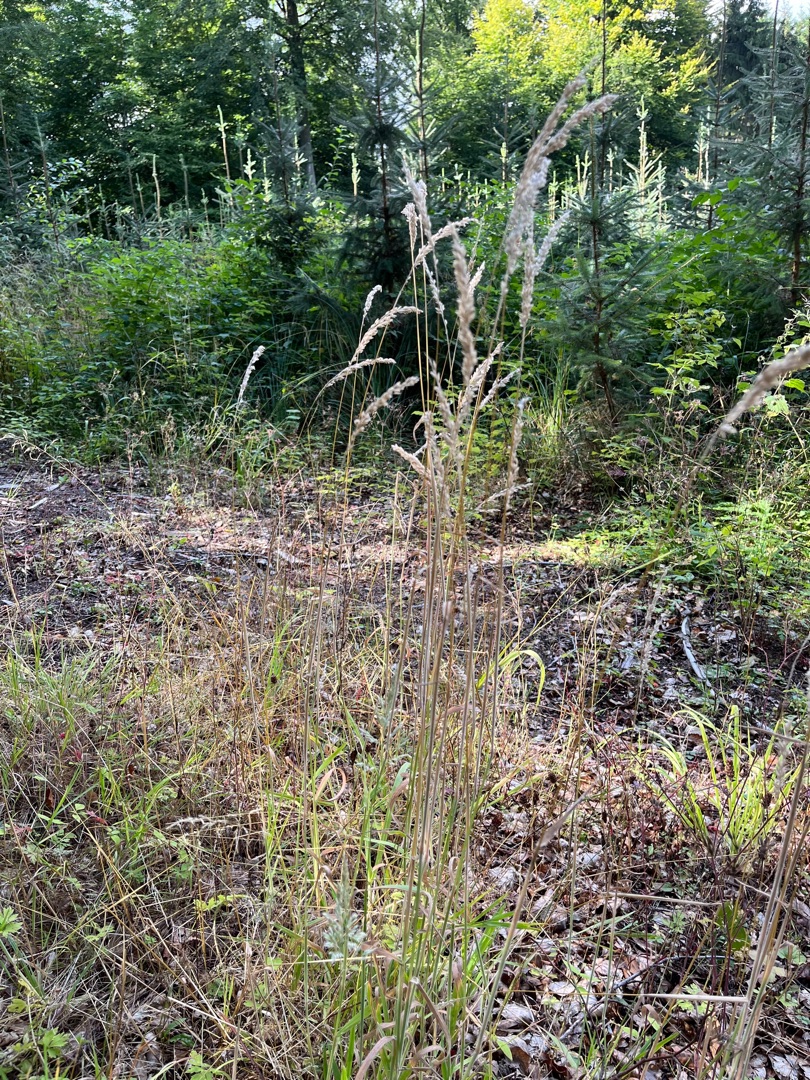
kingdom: Plantae
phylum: Tracheophyta
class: Liliopsida
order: Poales
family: Poaceae
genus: Holcus
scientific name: Holcus lanatus
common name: Fløjlsgræs
